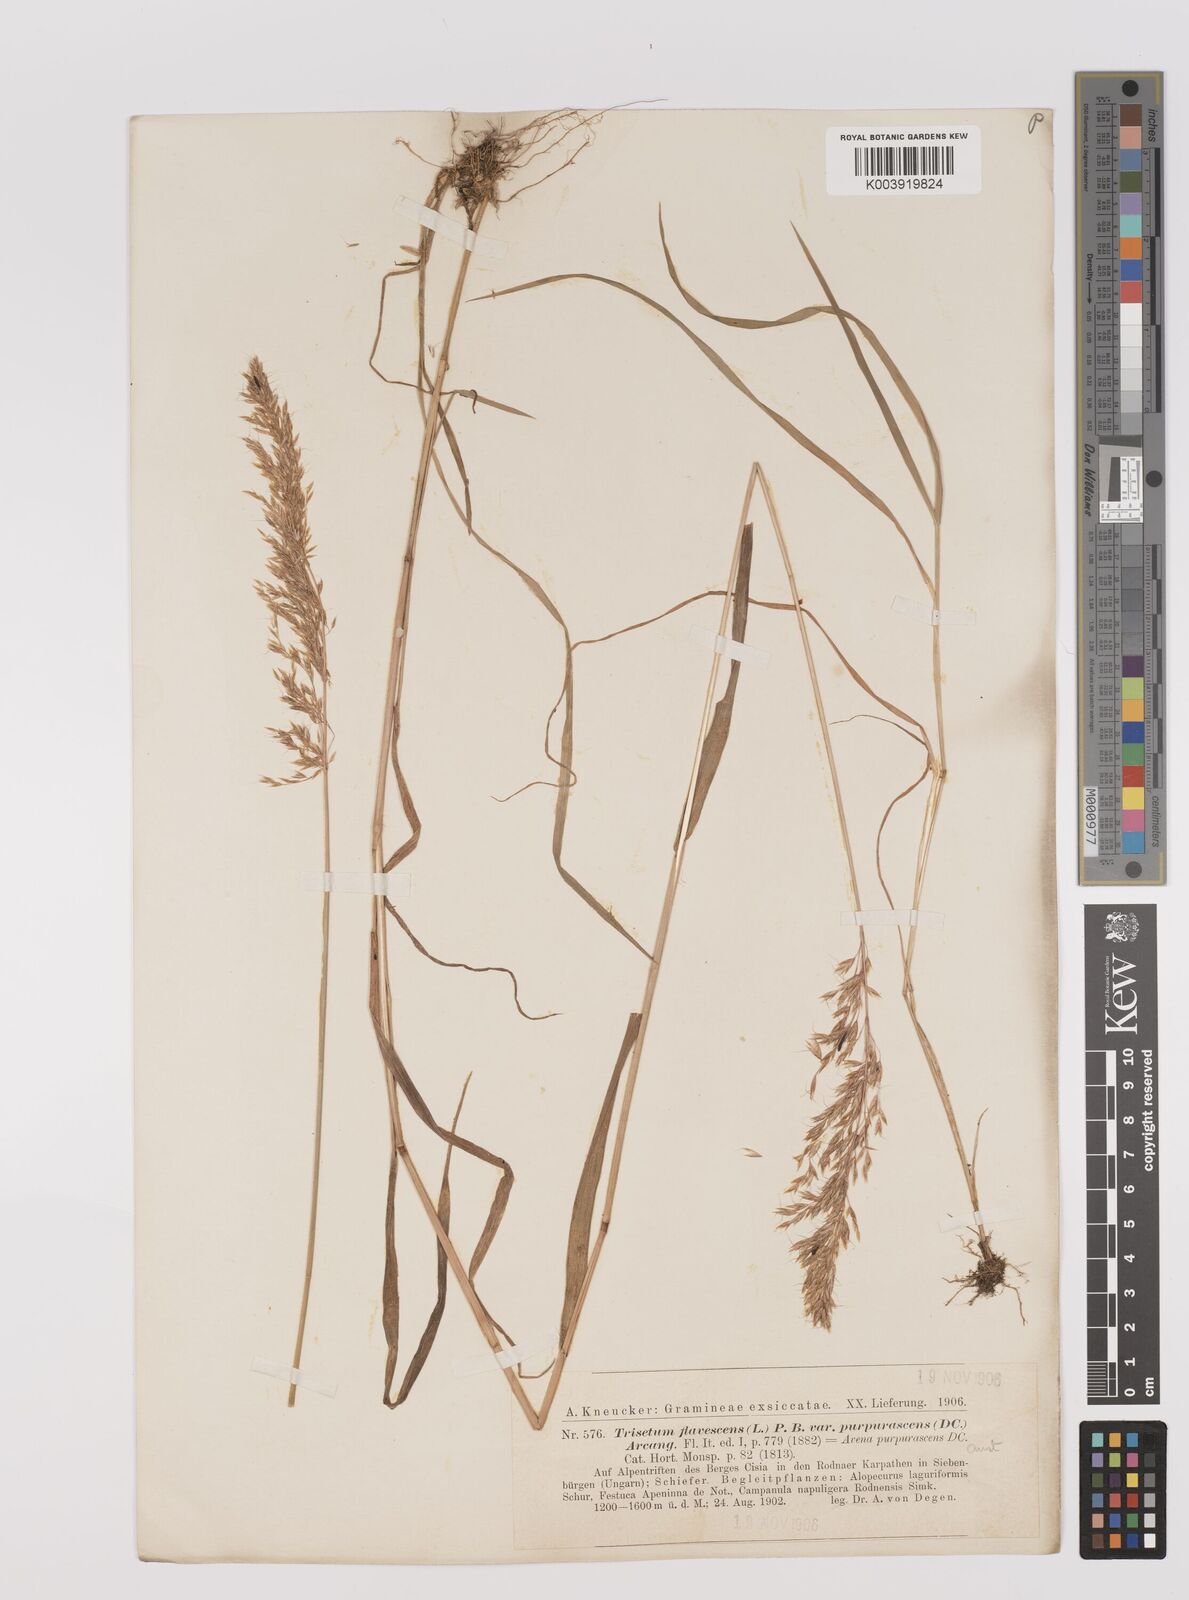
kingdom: Plantae
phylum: Tracheophyta
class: Liliopsida
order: Poales
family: Poaceae
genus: Trisetum
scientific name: Trisetum flavescens
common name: Yellow oat-grass
